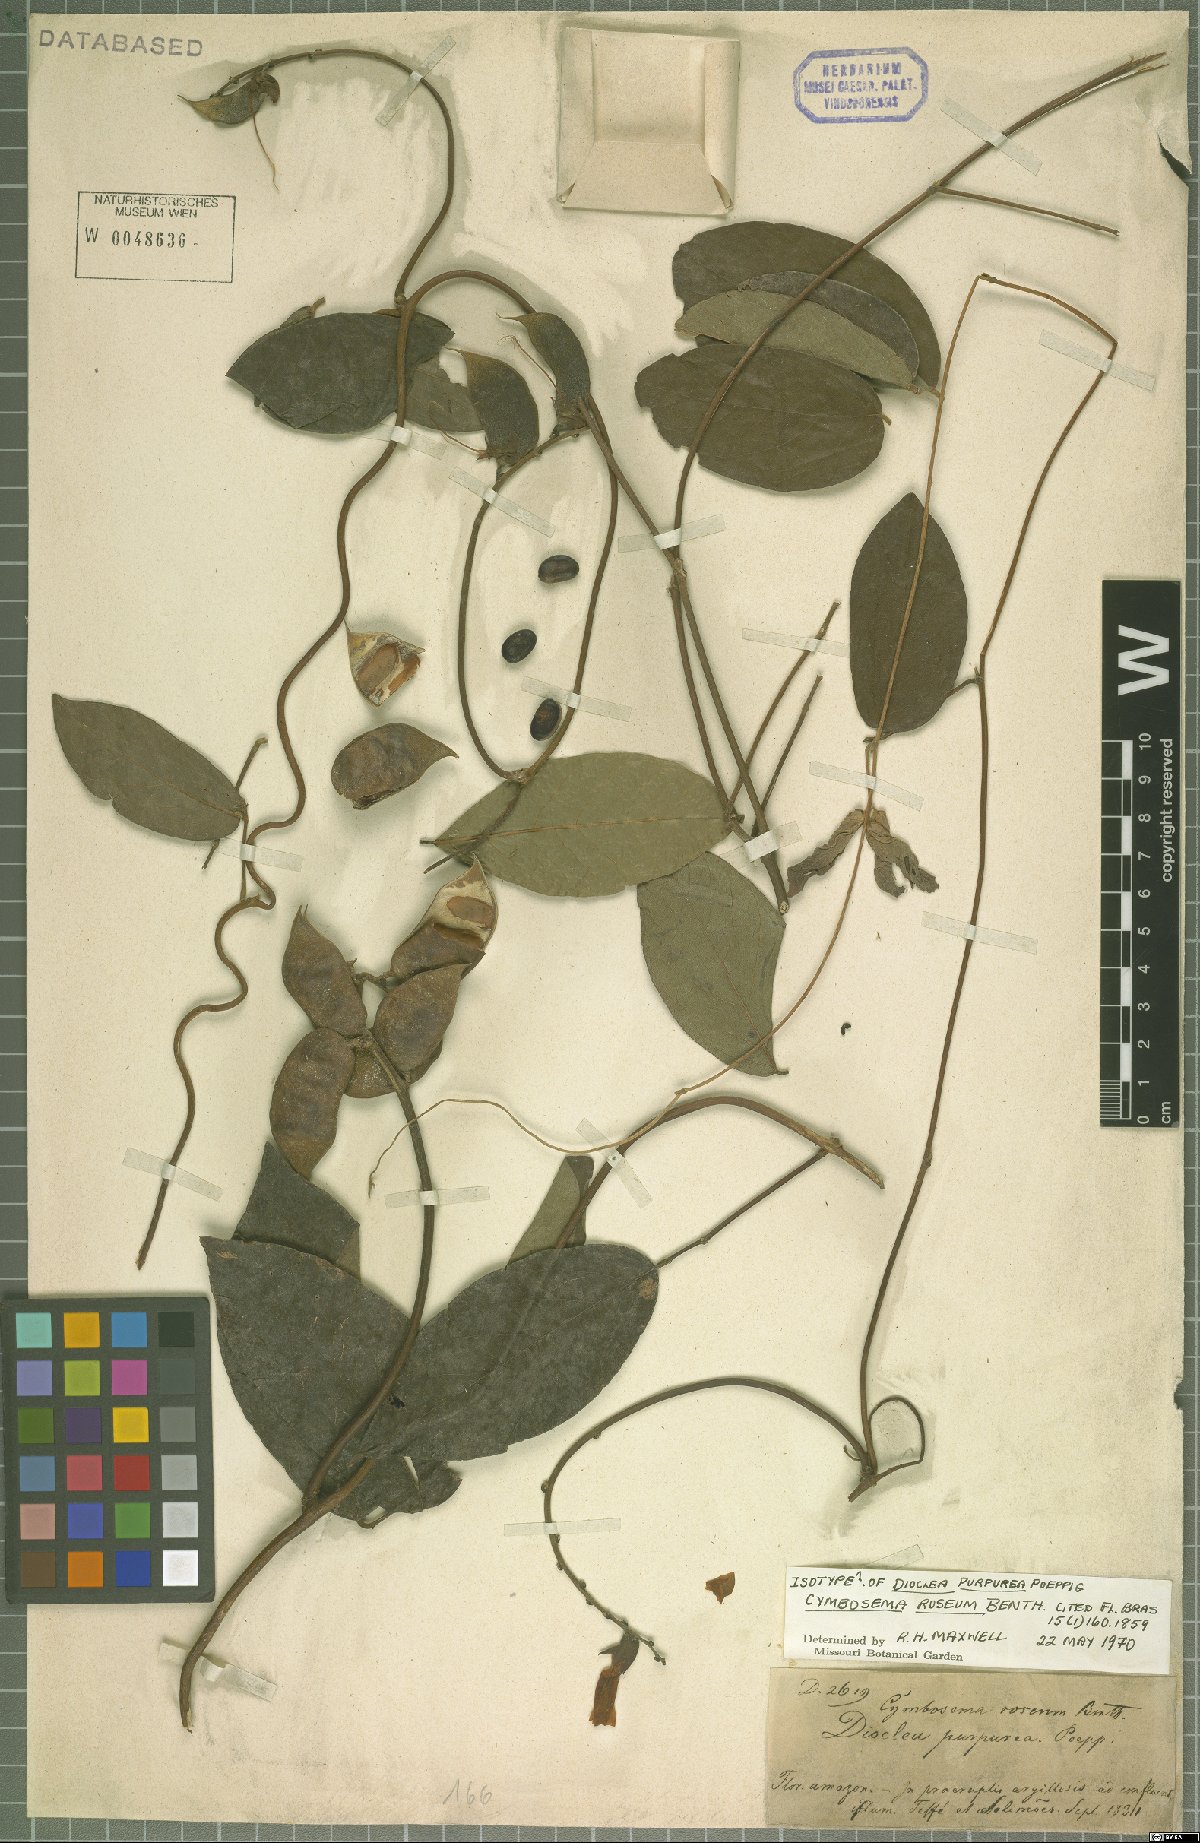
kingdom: Plantae
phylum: Tracheophyta
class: Magnoliopsida
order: Fabales
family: Fabaceae
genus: Cymbosema
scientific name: Cymbosema roseum
